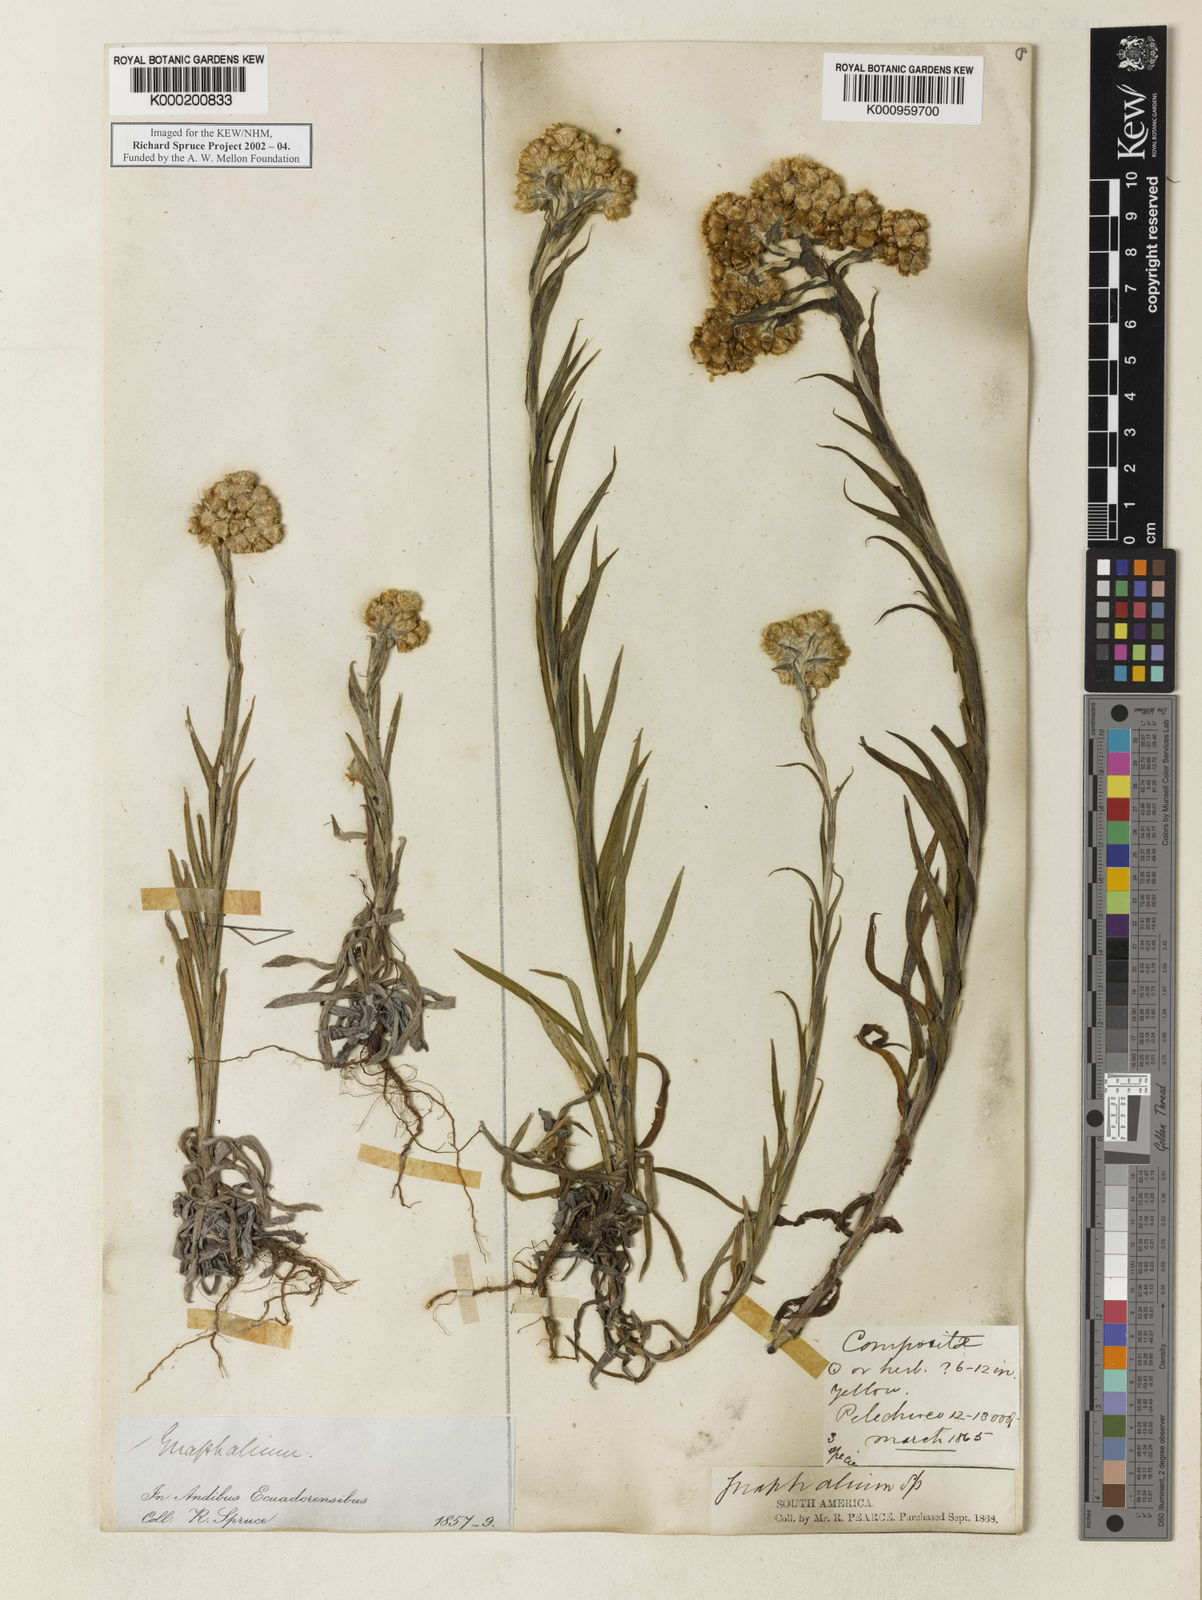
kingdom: Plantae
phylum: Tracheophyta
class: Magnoliopsida
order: Asterales
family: Asteraceae
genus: Pseudognaphalium
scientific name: Pseudognaphalium
